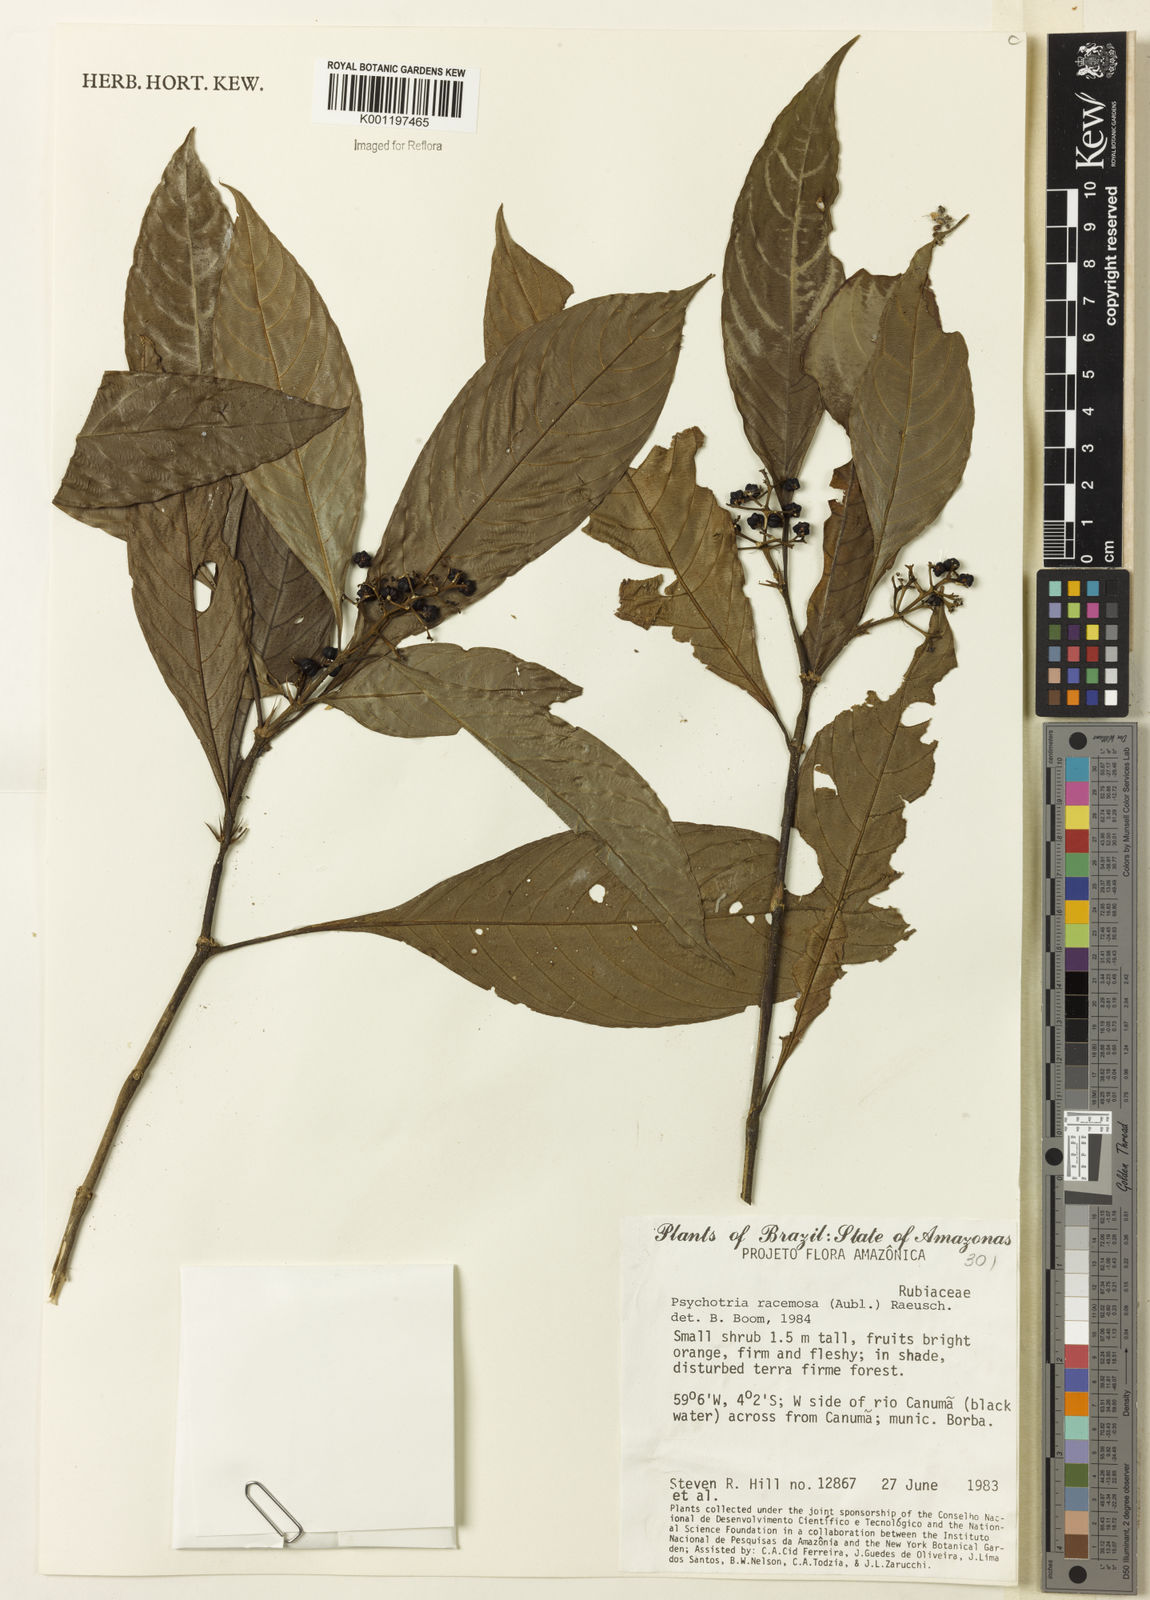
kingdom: Plantae
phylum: Tracheophyta
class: Magnoliopsida
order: Gentianales
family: Rubiaceae
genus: Palicourea
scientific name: Palicourea racemosa
